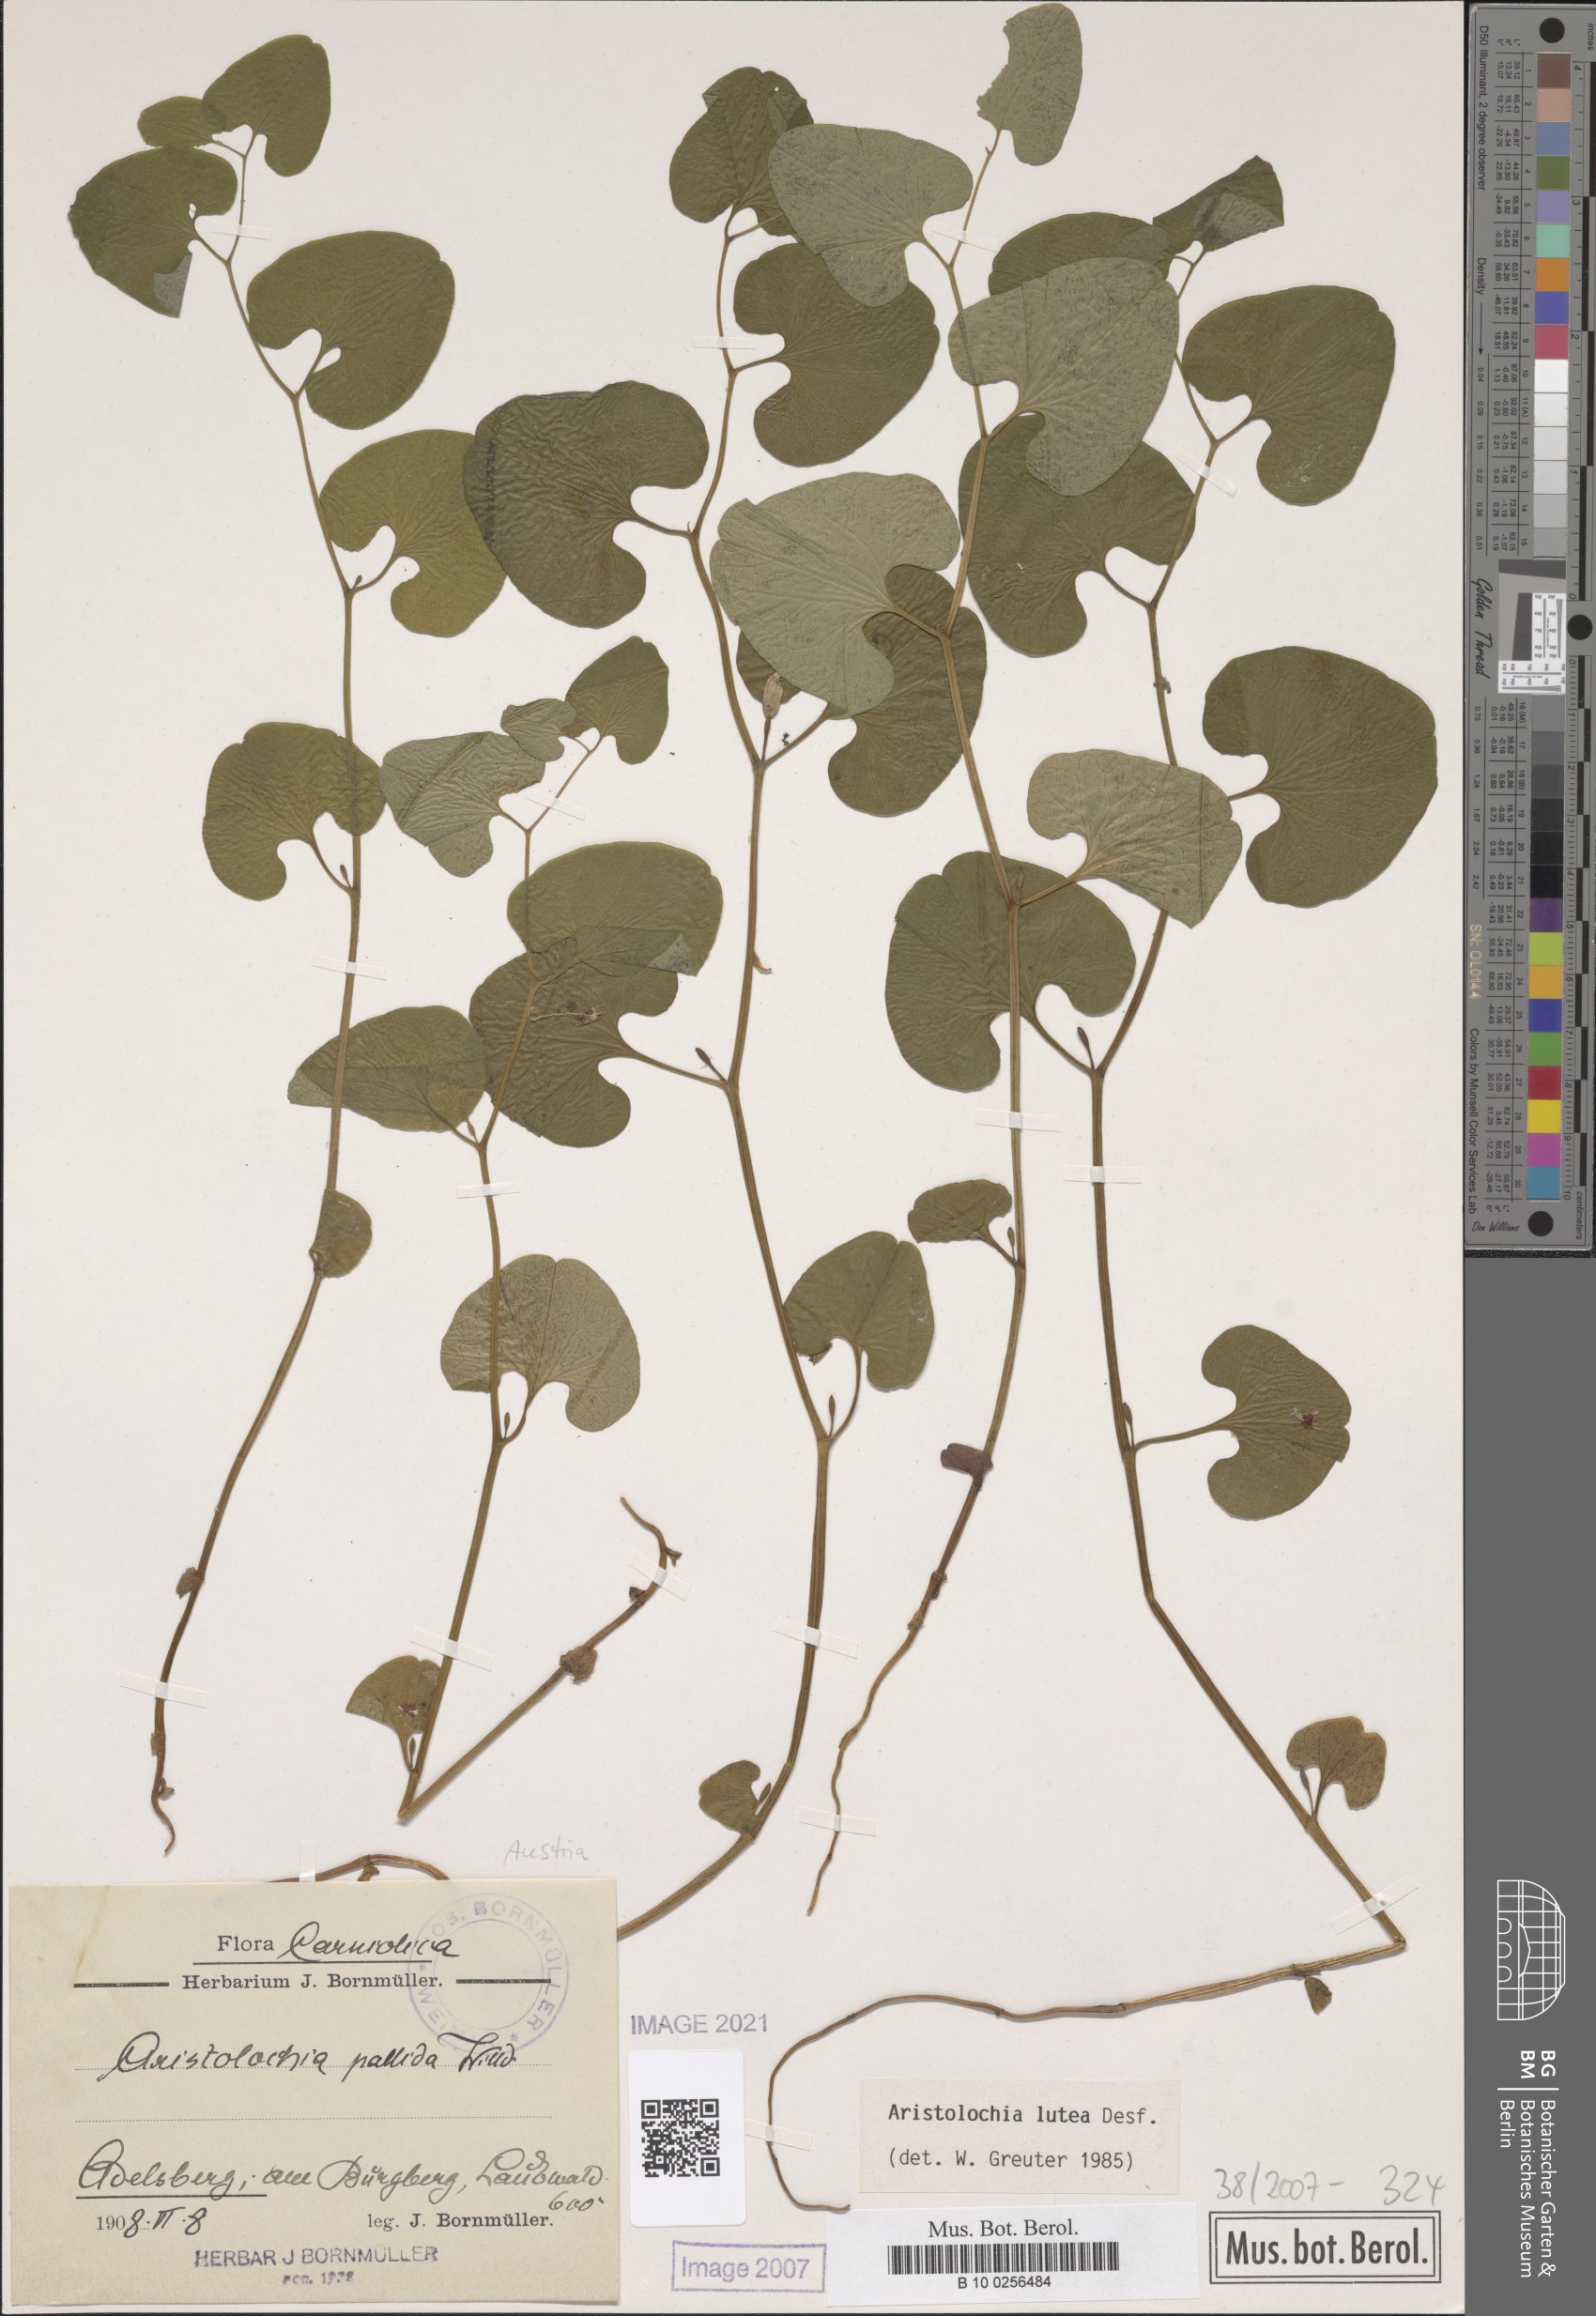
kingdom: Plantae
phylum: Tracheophyta
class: Magnoliopsida
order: Piperales
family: Aristolochiaceae
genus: Aristolochia
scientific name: Aristolochia lutea
